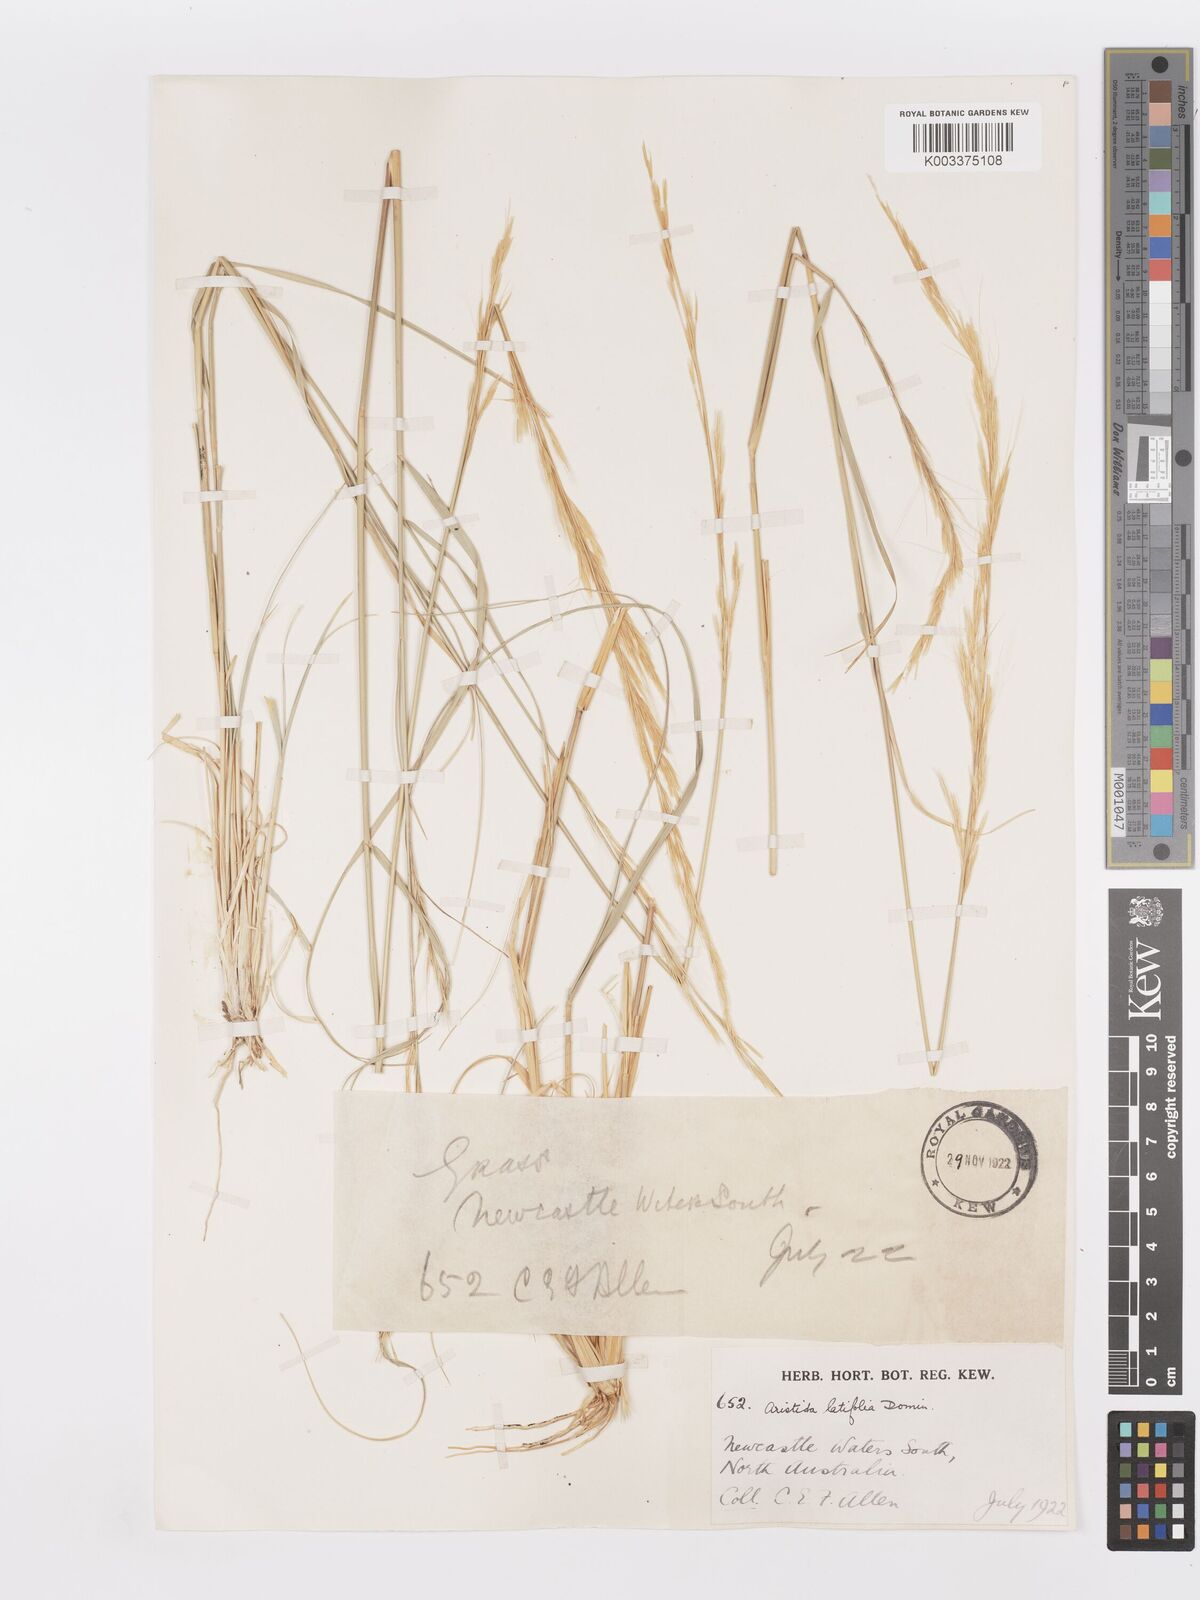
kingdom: Plantae
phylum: Tracheophyta
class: Liliopsida
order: Poales
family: Poaceae
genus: Aristida
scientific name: Aristida latifolia
